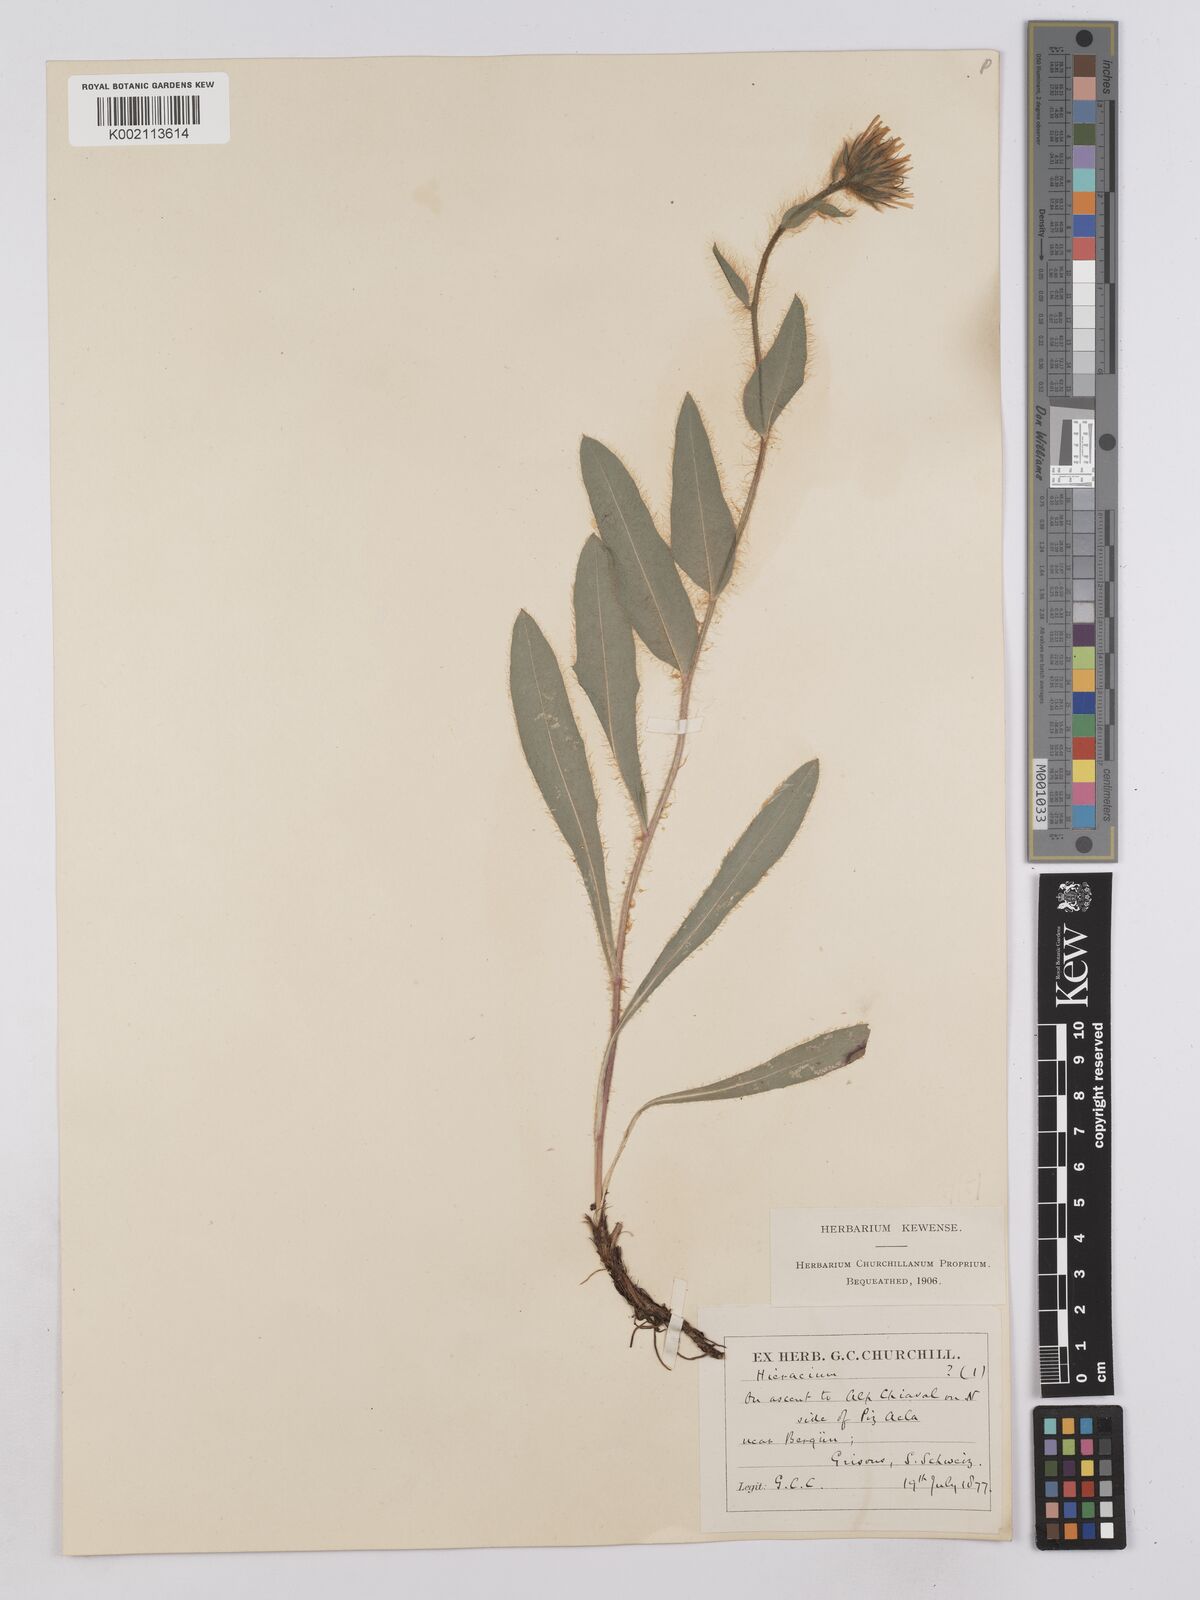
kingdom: Plantae
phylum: Tracheophyta
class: Magnoliopsida
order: Asterales
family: Asteraceae
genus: Hieracium
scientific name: Hieracium villosum
